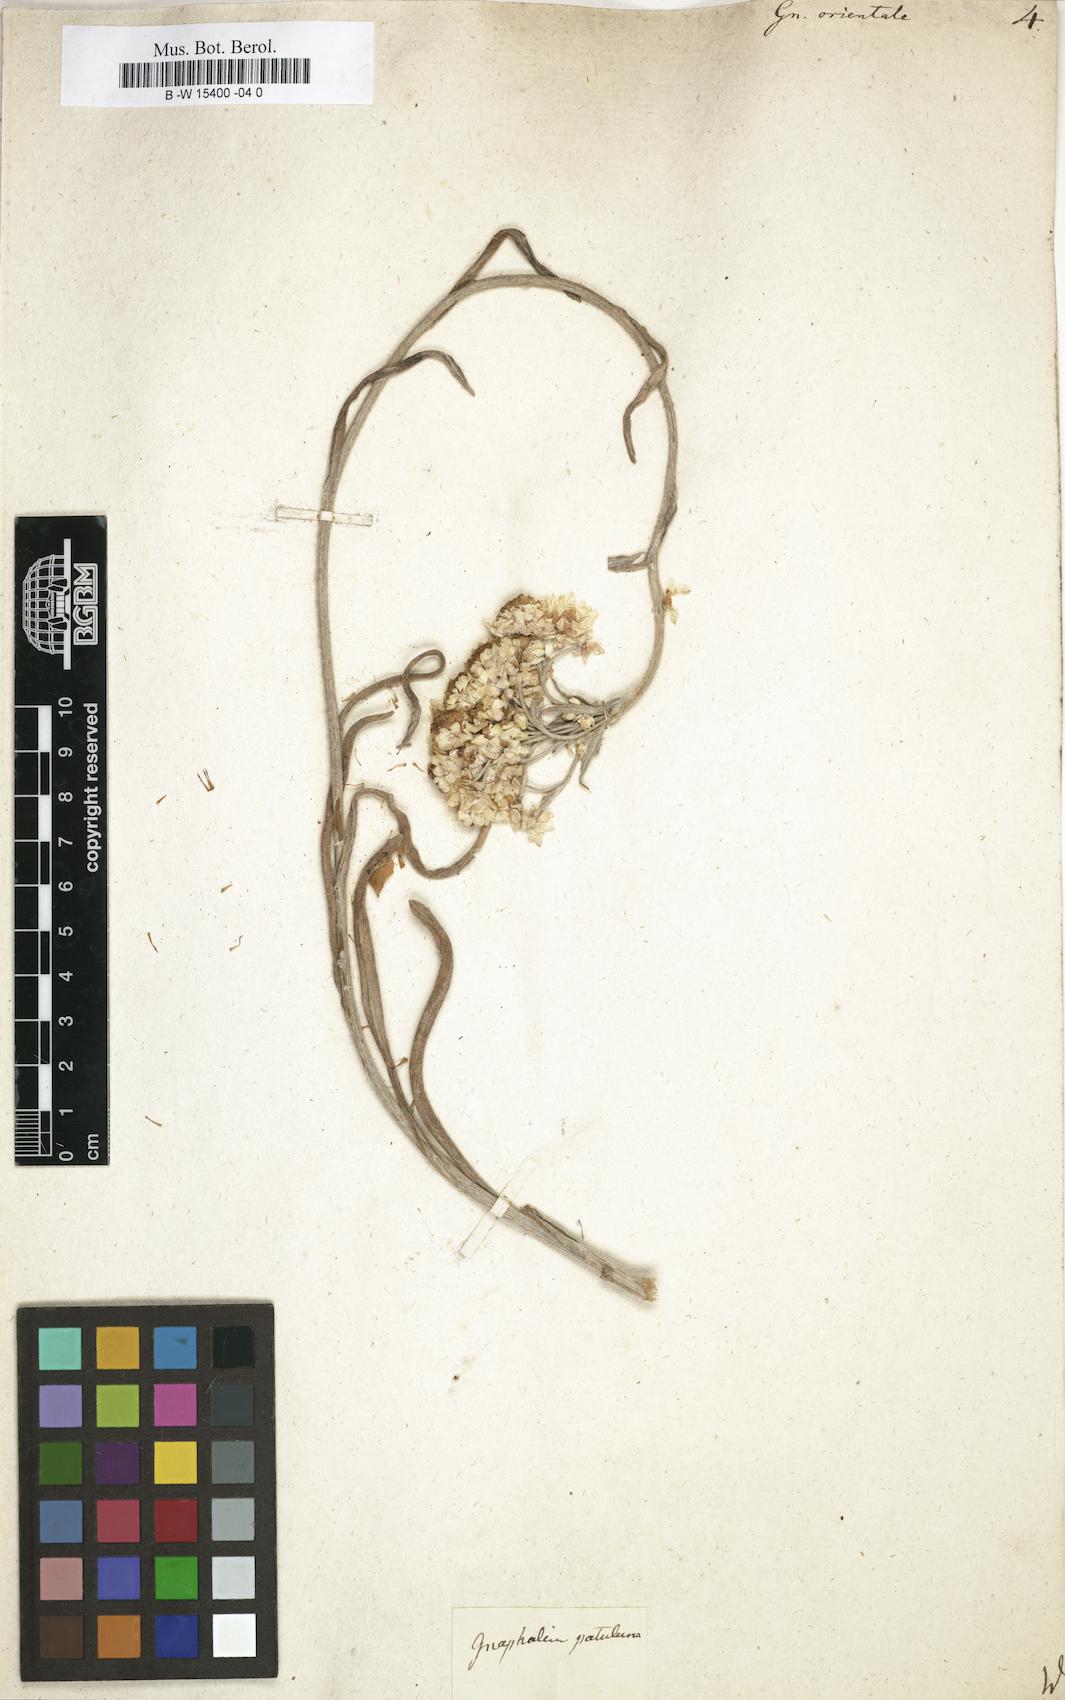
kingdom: Plantae
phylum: Tracheophyta
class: Magnoliopsida
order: Asterales
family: Asteraceae
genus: Helichrysum
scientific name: Helichrysum orientale
